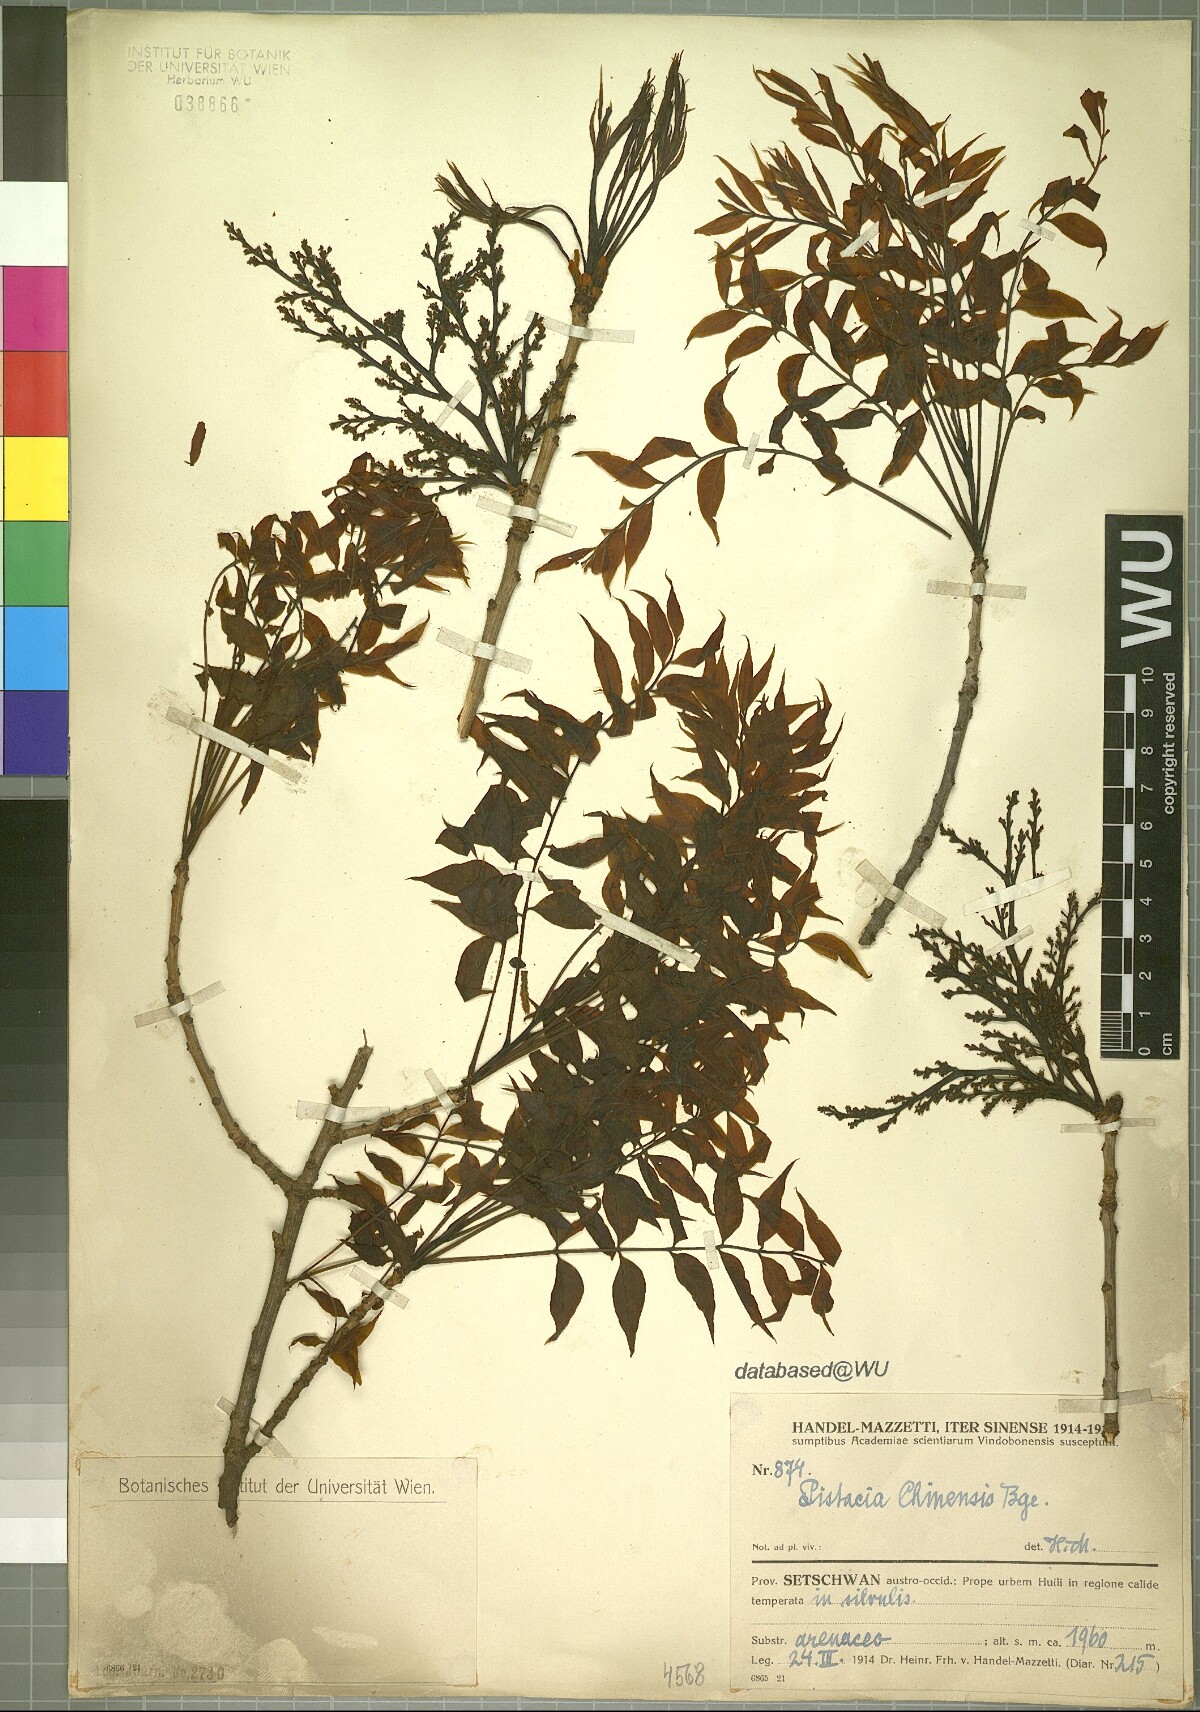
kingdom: Plantae
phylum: Tracheophyta
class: Magnoliopsida
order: Sapindales
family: Anacardiaceae
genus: Pistacia
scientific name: Pistacia chinensis
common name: Chinese pistache
